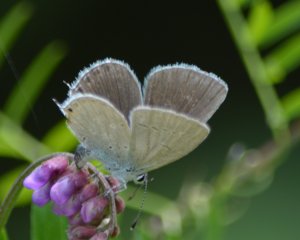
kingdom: Animalia
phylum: Arthropoda
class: Insecta
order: Lepidoptera
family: Lycaenidae
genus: Elkalyce
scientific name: Elkalyce amyntula
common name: Western Tailed-Blue
